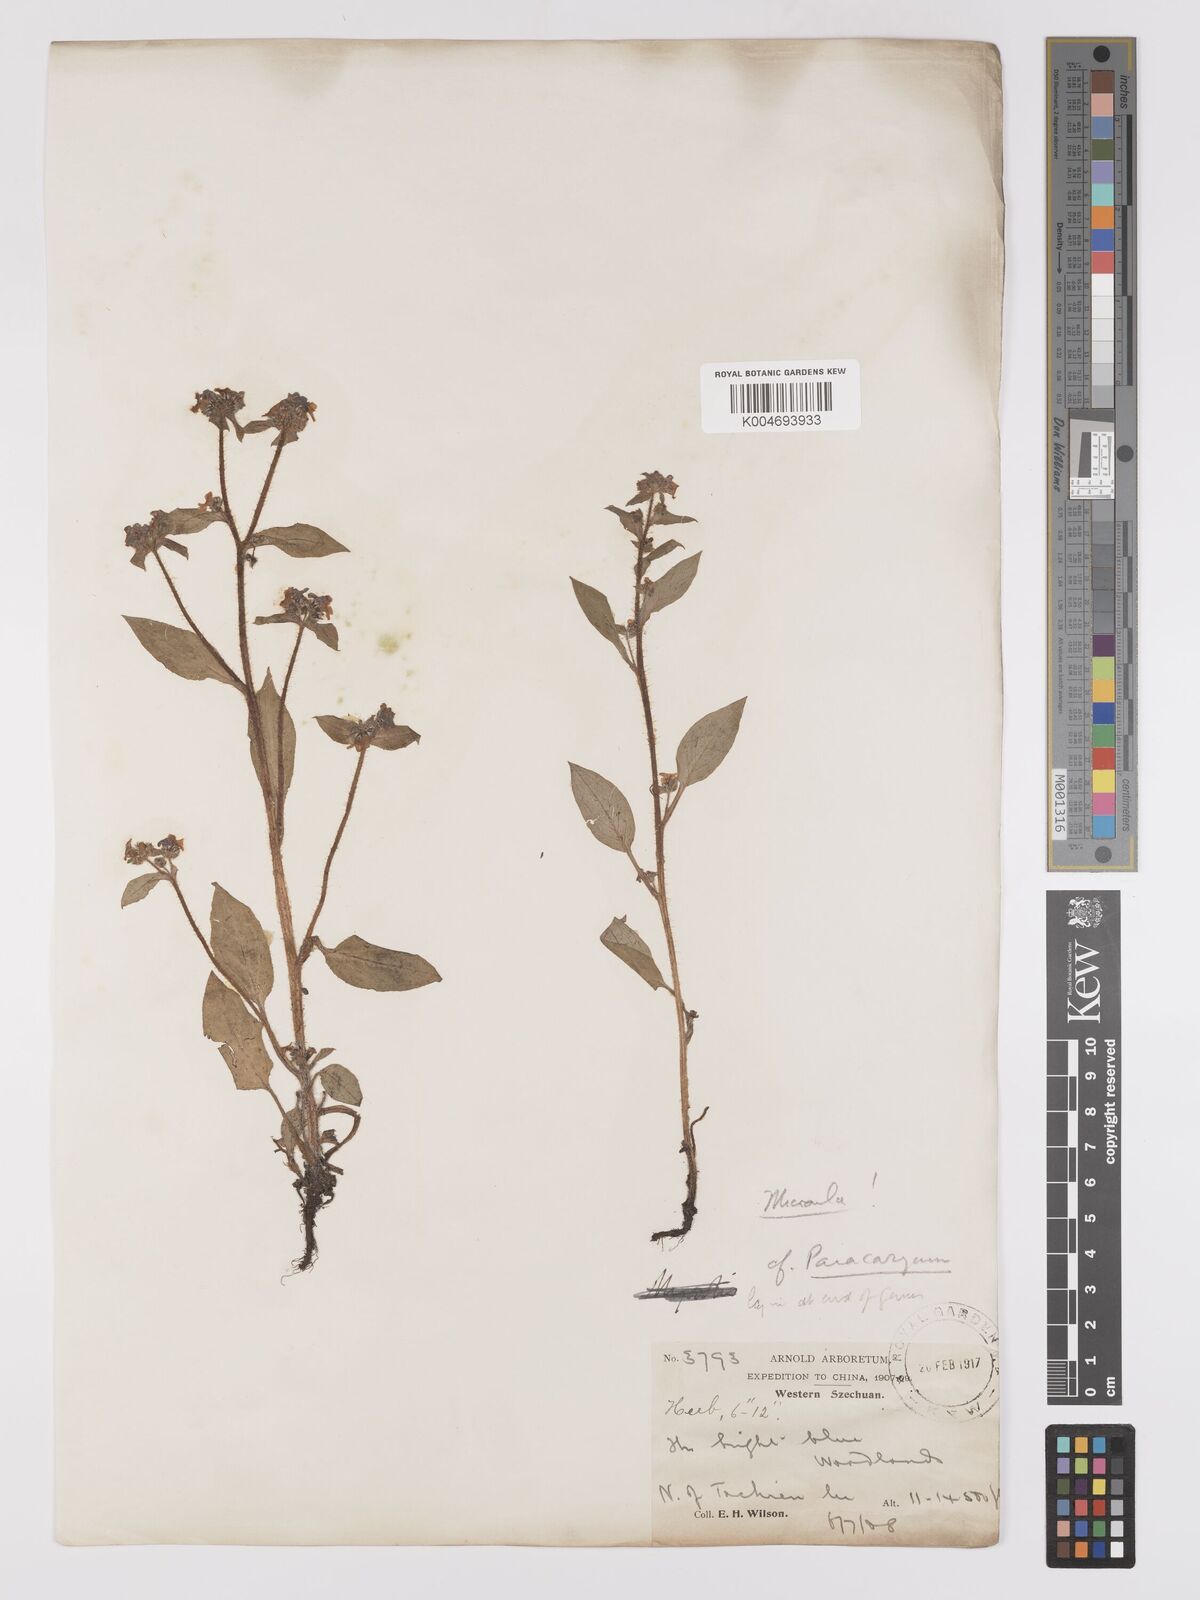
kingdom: Plantae
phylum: Tracheophyta
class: Magnoliopsida
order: Boraginales
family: Boraginaceae
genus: Microula
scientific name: Microula
